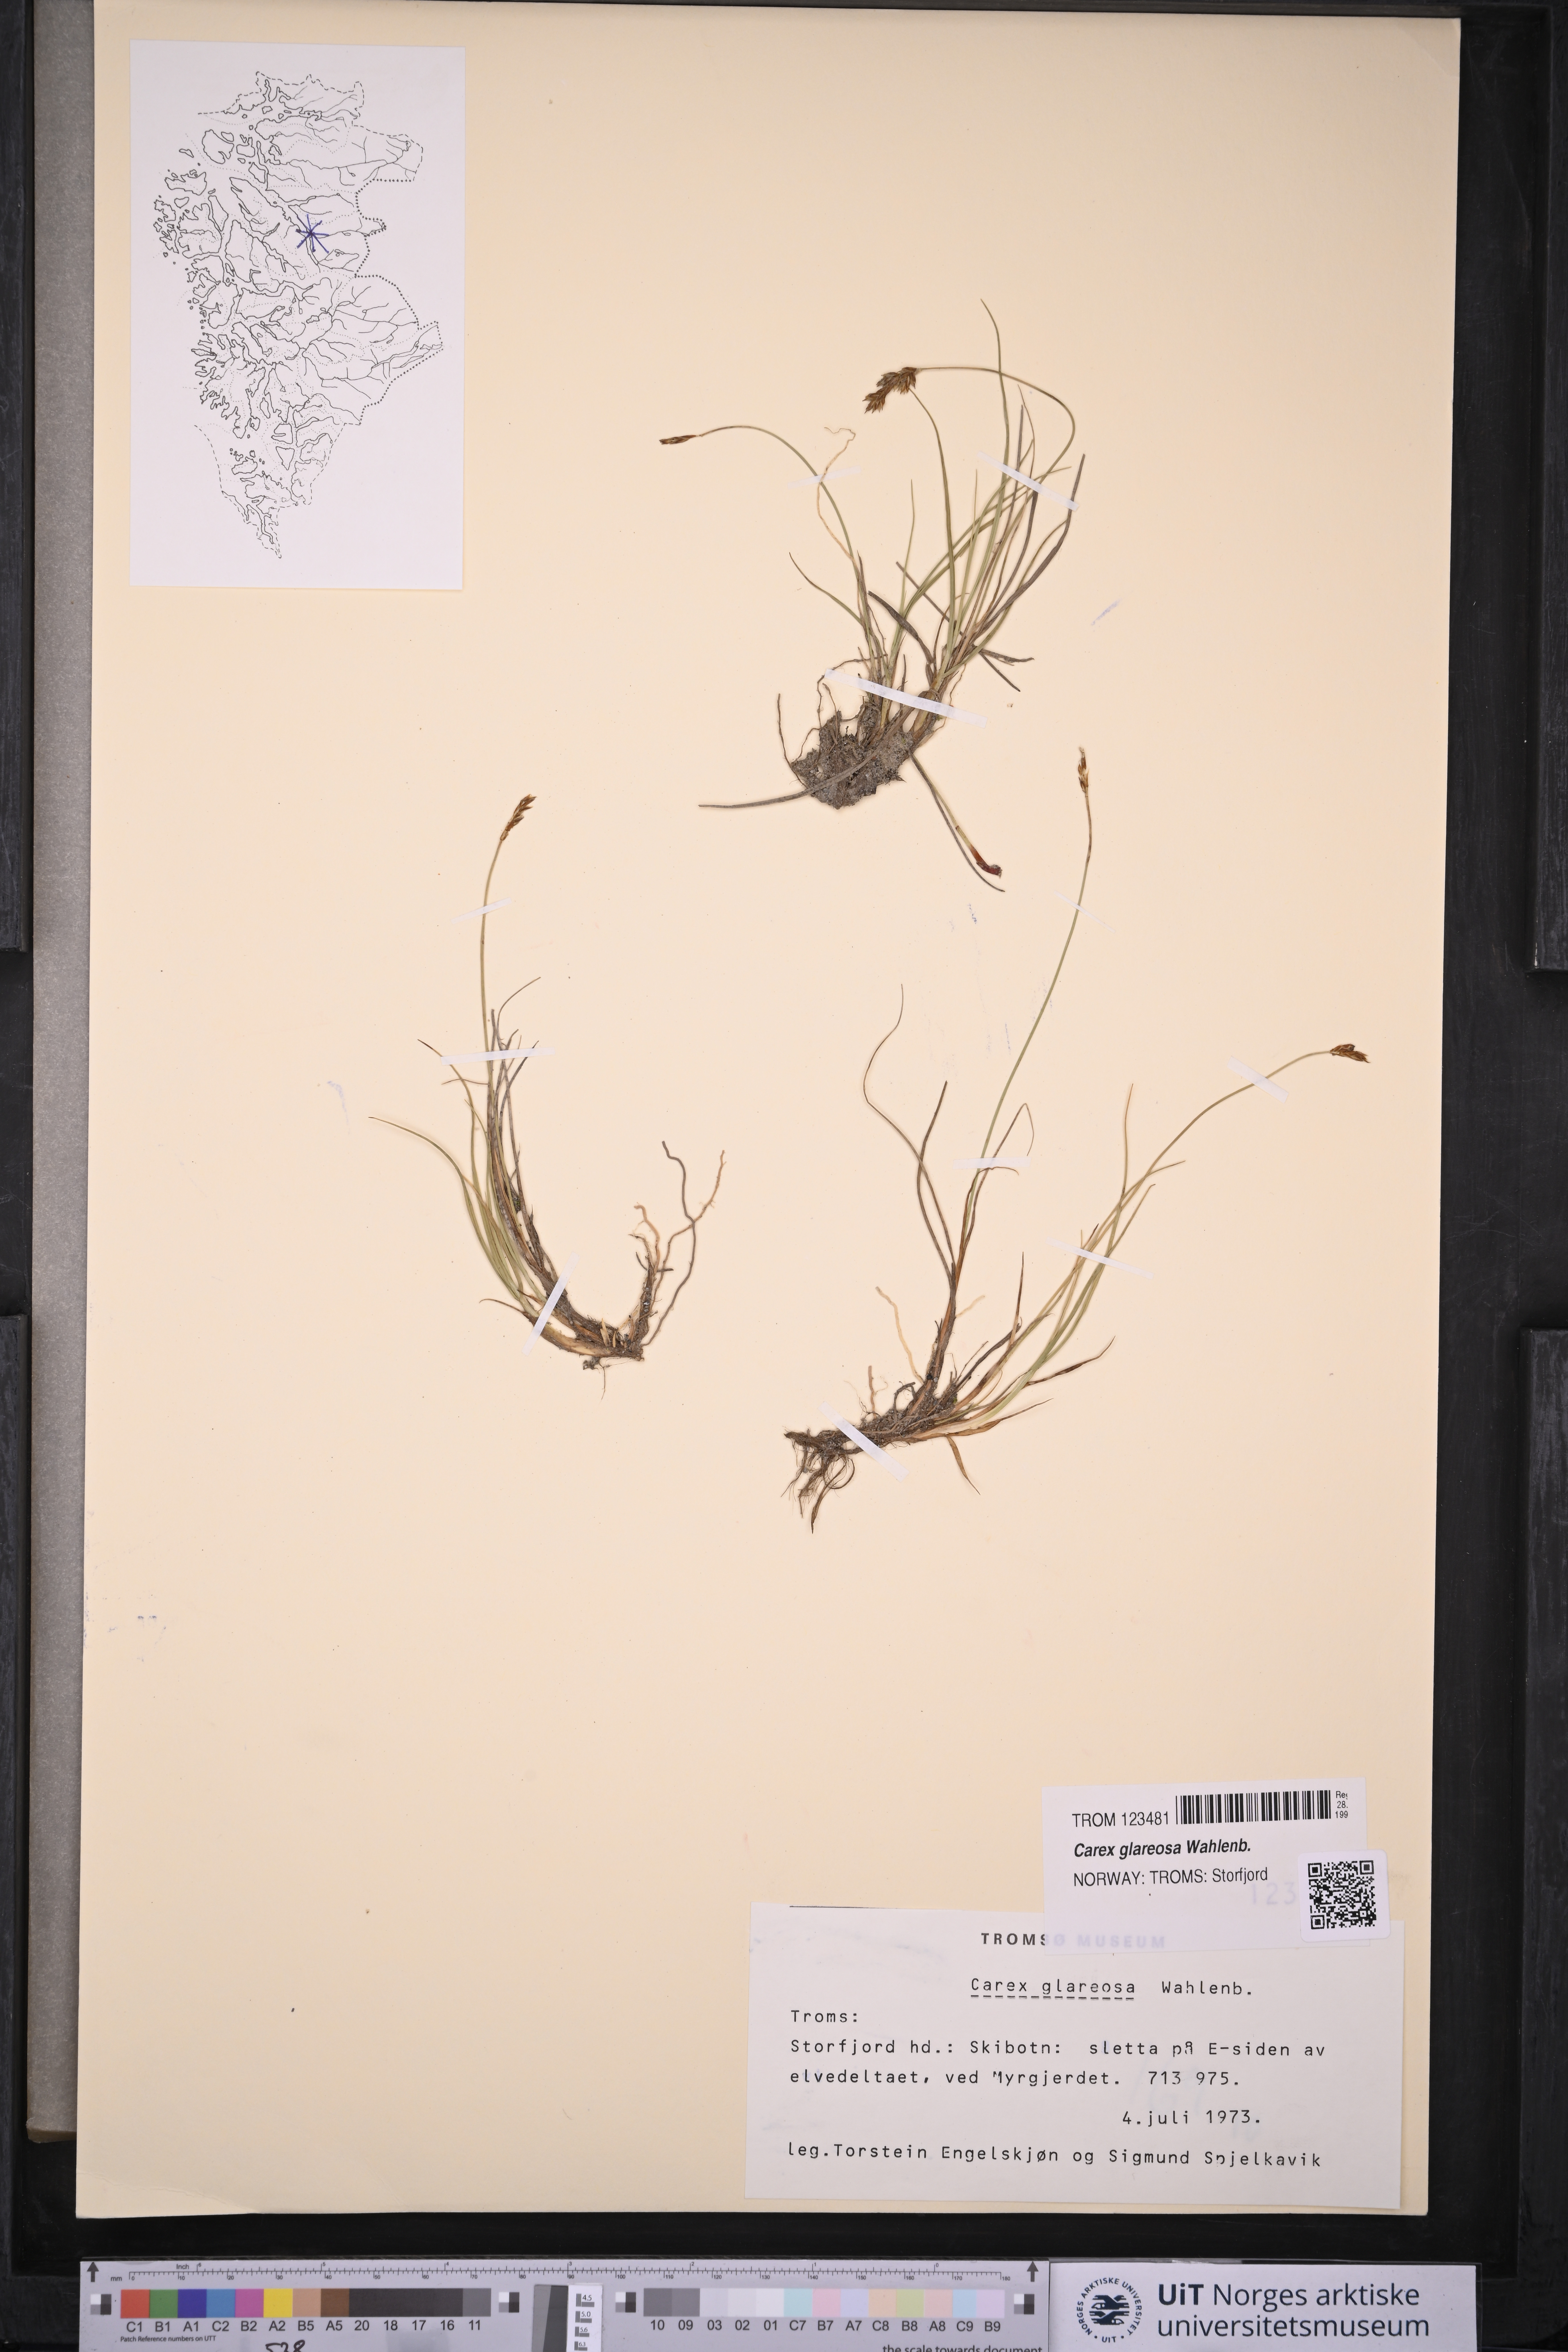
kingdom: Plantae
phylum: Tracheophyta
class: Liliopsida
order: Poales
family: Cyperaceae
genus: Carex
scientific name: Carex glareosa
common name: Clustered sedge
